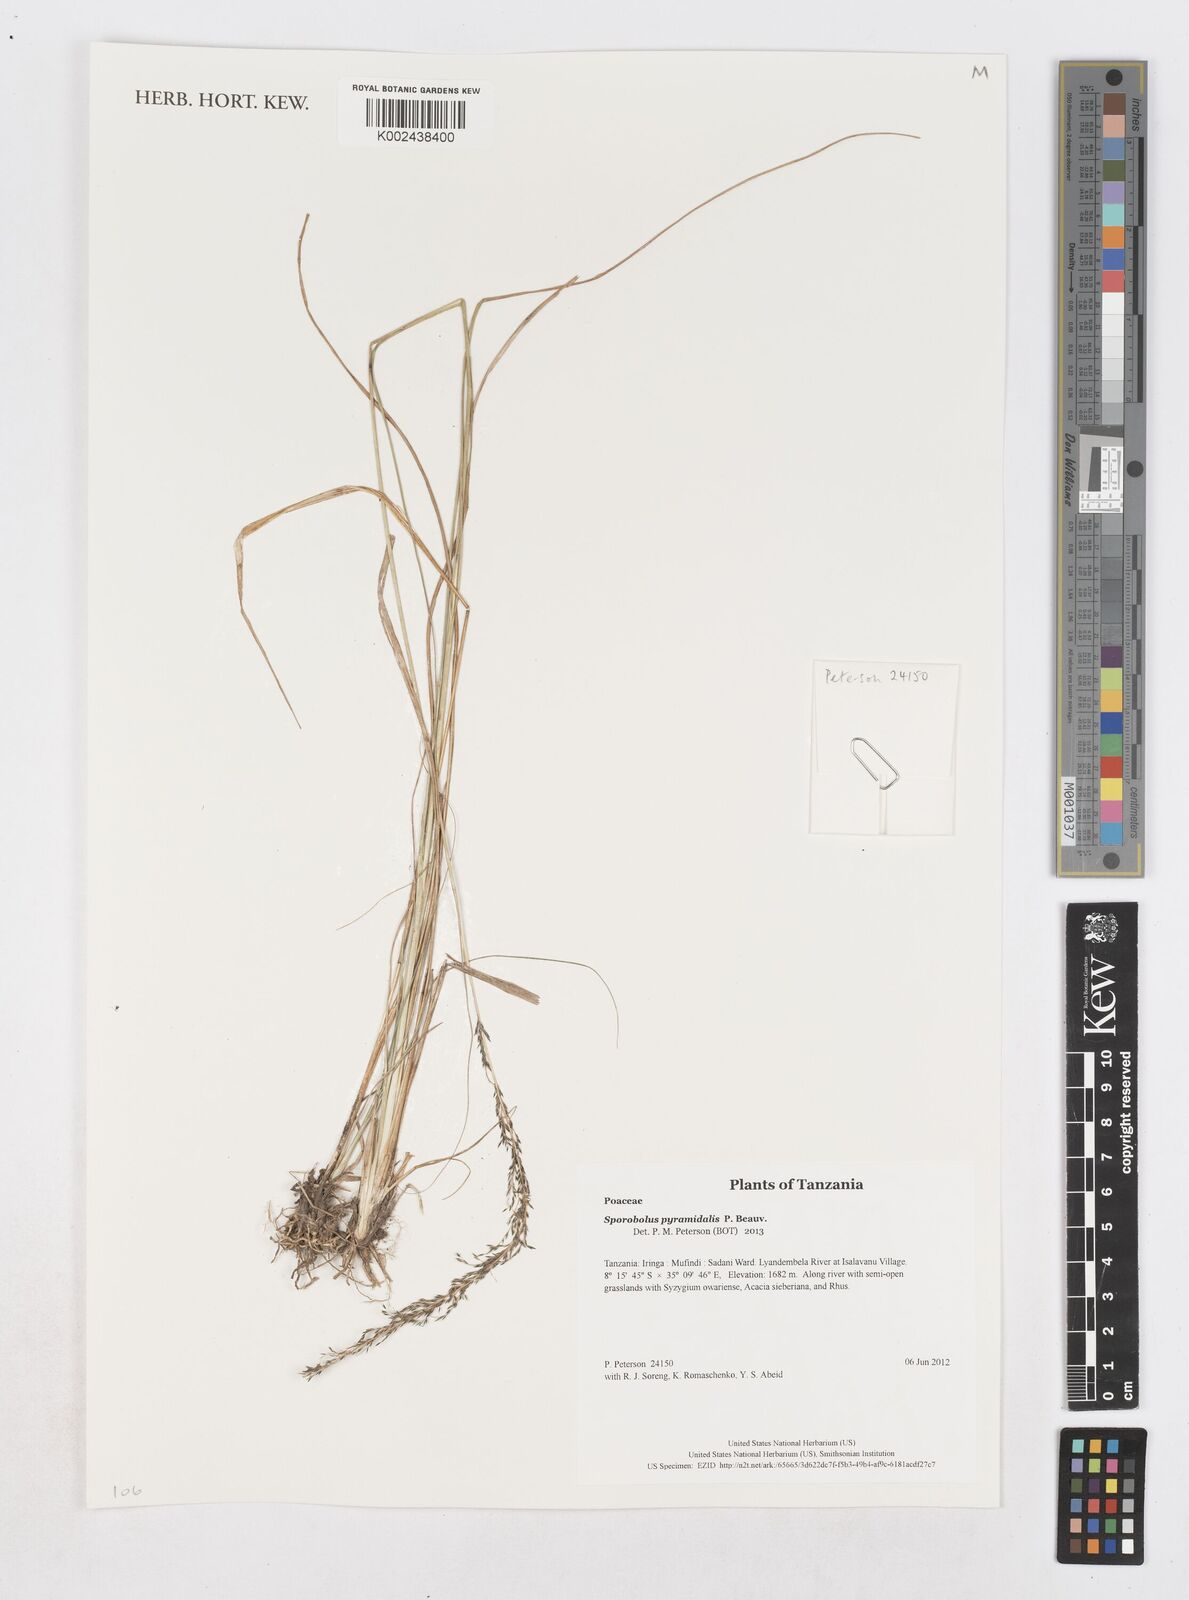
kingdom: Plantae
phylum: Tracheophyta
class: Liliopsida
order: Poales
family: Poaceae
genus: Sporobolus
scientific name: Sporobolus pyramidalis
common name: West indian dropseed
